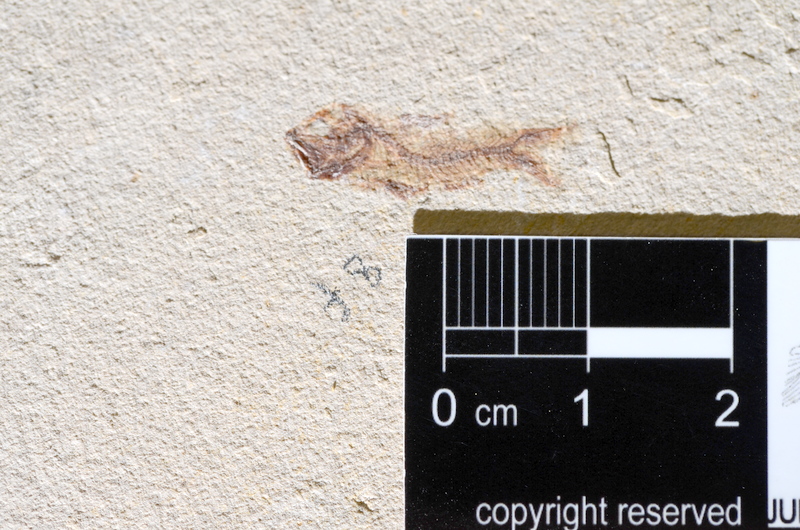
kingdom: Animalia
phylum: Chordata
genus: Phoenicolepis
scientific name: Phoenicolepis
